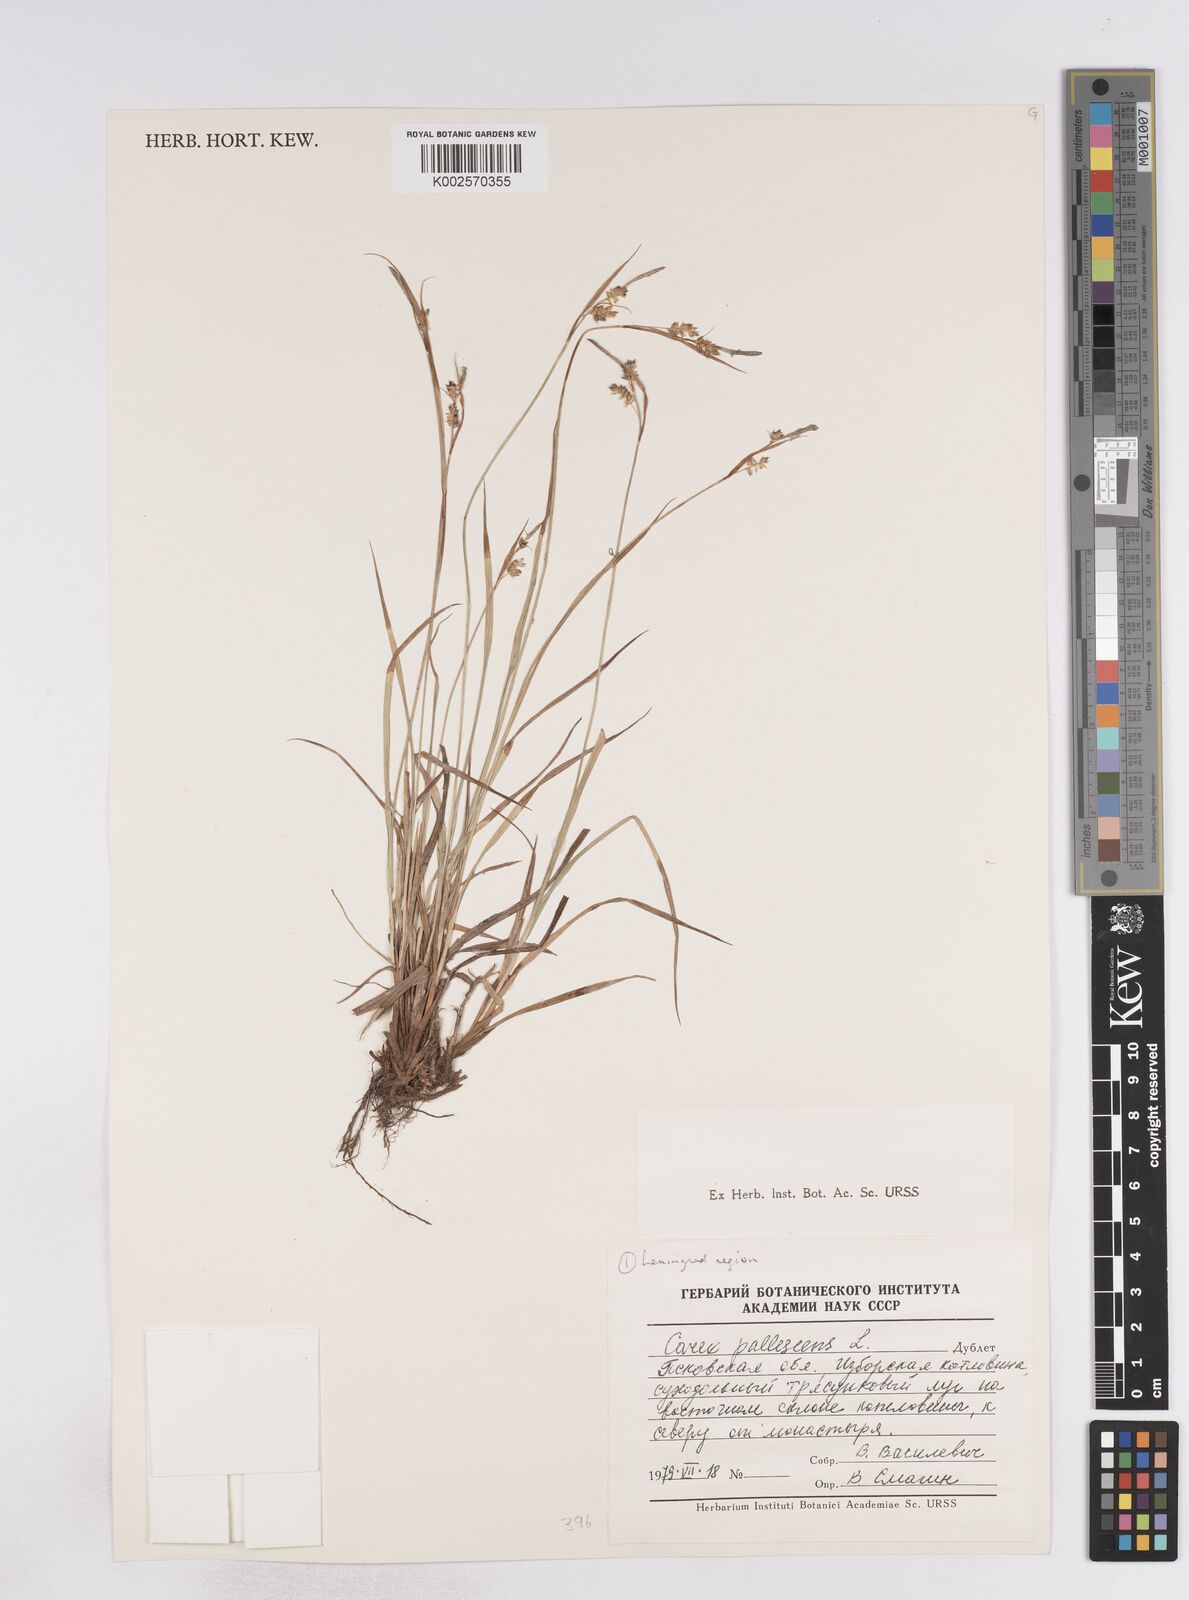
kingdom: Plantae
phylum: Tracheophyta
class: Liliopsida
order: Poales
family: Cyperaceae
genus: Carex
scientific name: Carex pallescens
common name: Pale sedge
